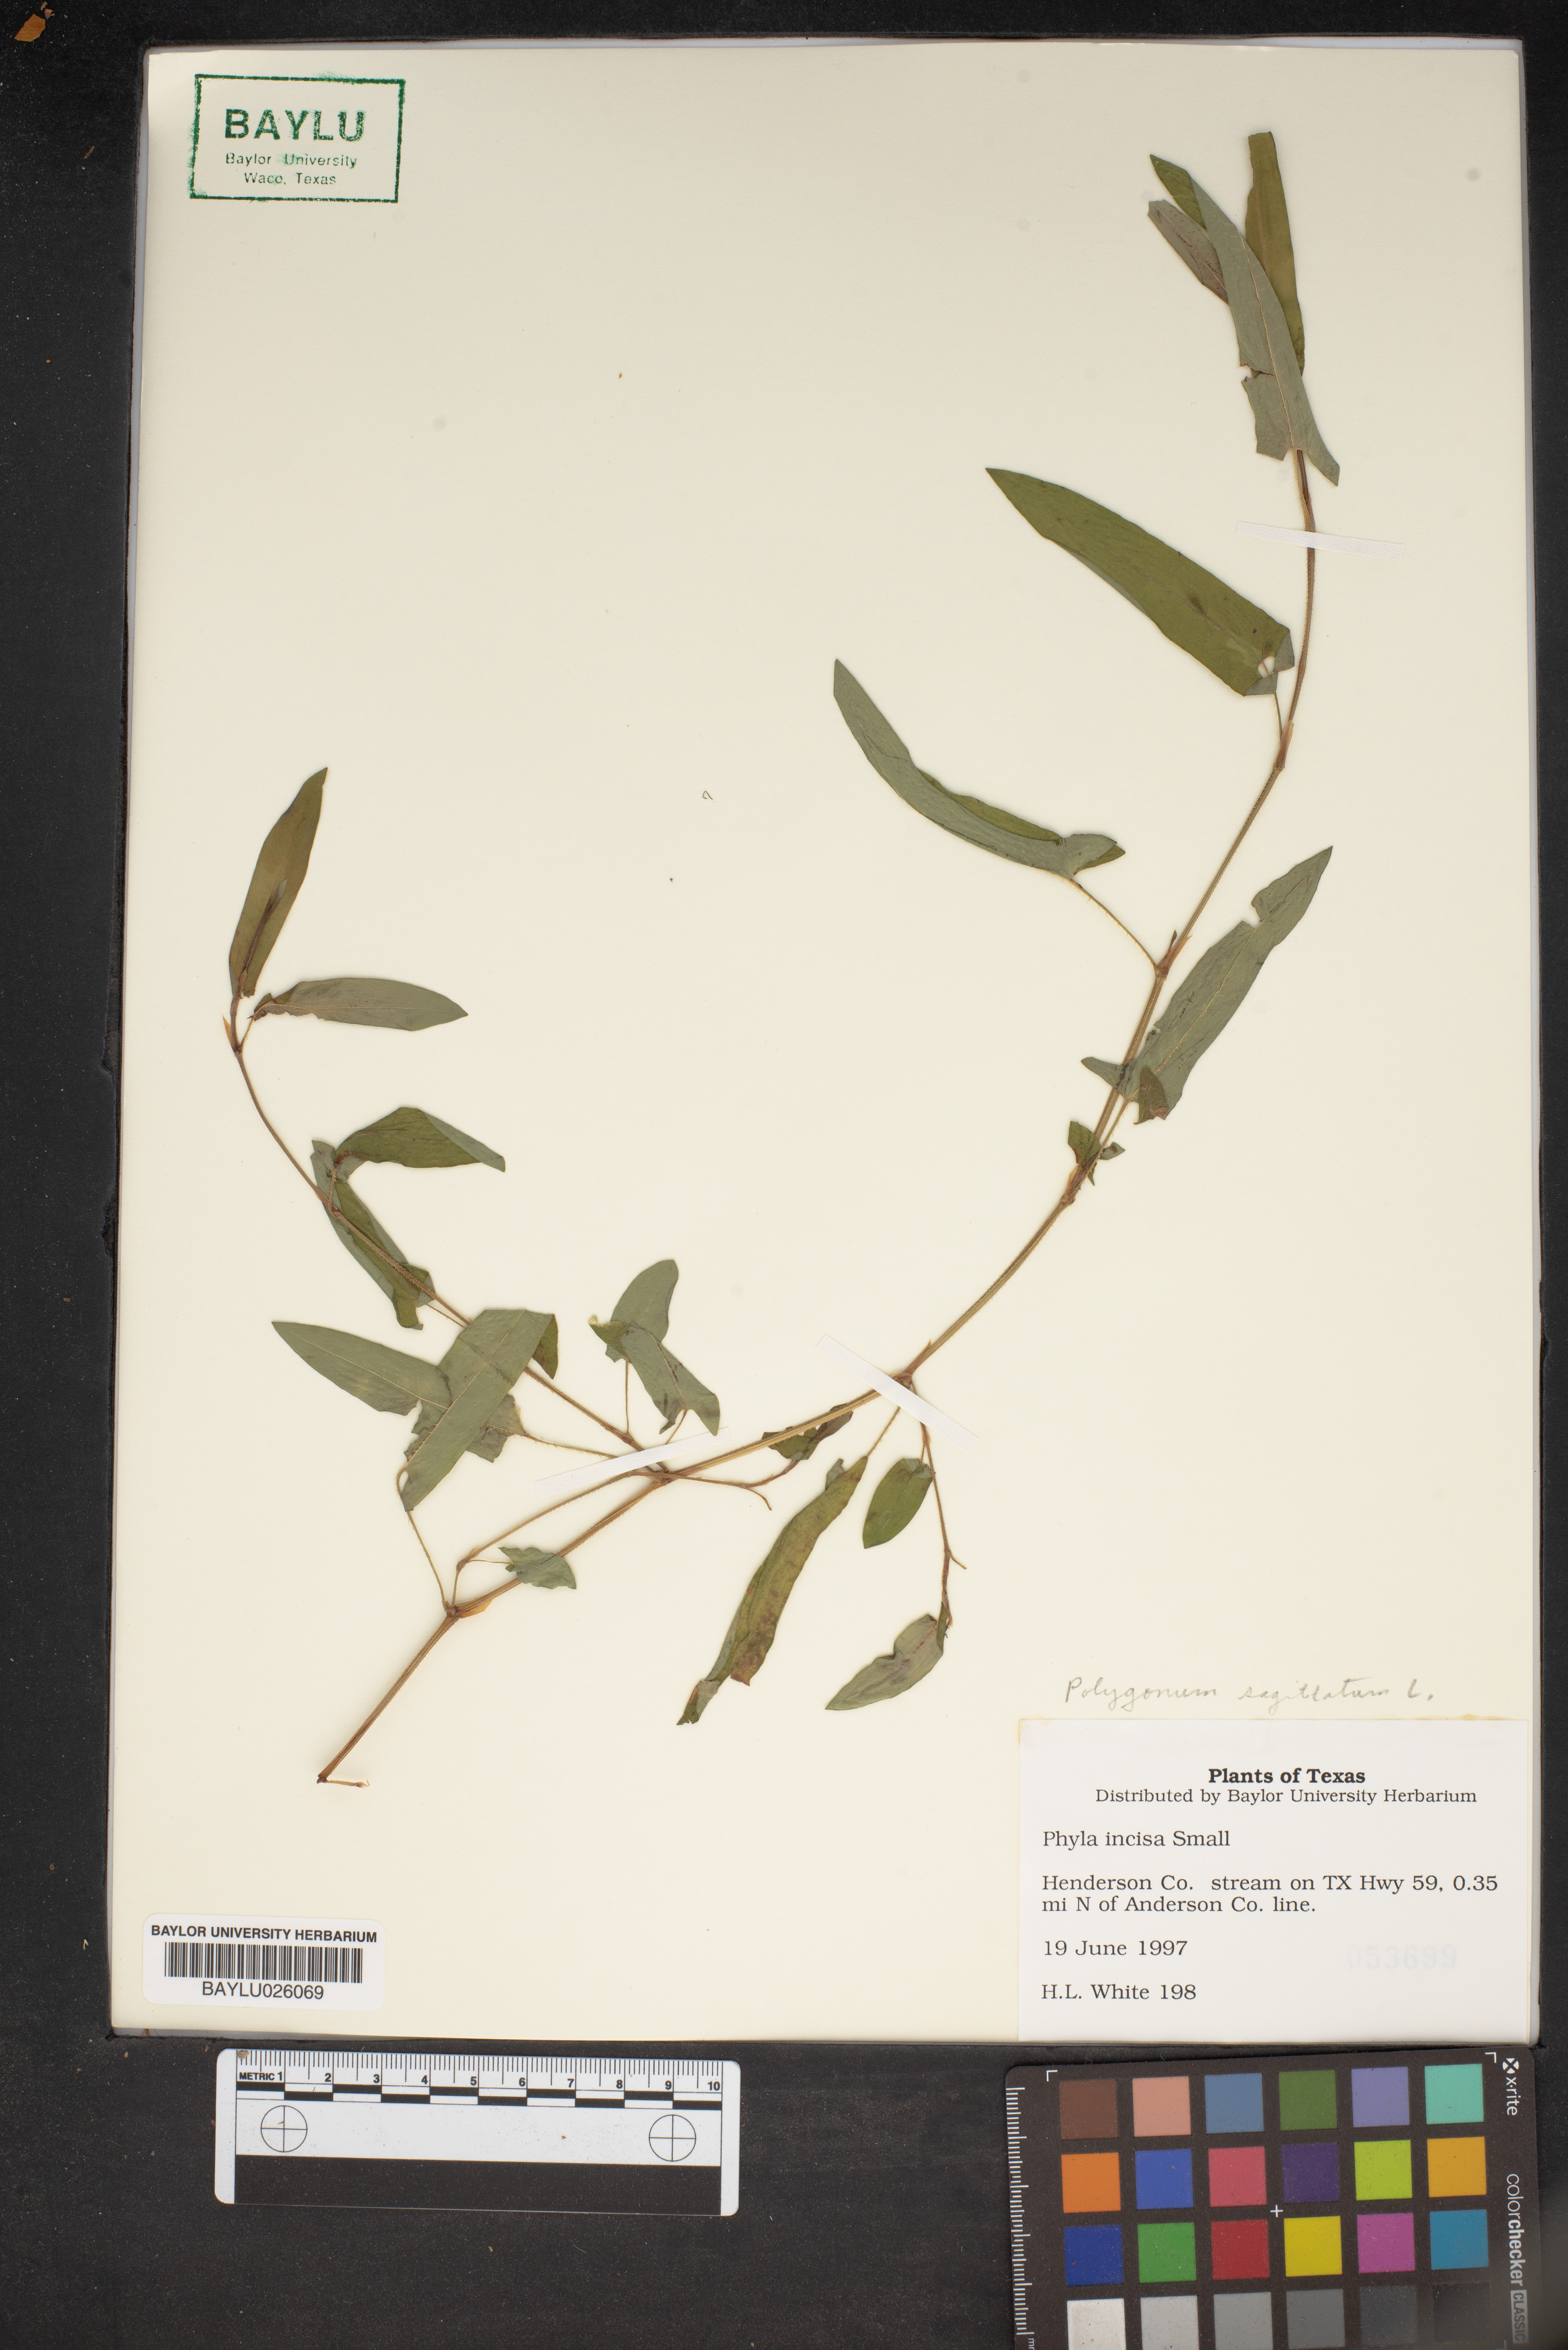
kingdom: Plantae
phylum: Tracheophyta
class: Magnoliopsida
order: Lamiales
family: Verbenaceae
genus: Phyla
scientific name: Phyla nodiflora
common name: Frogfruit
